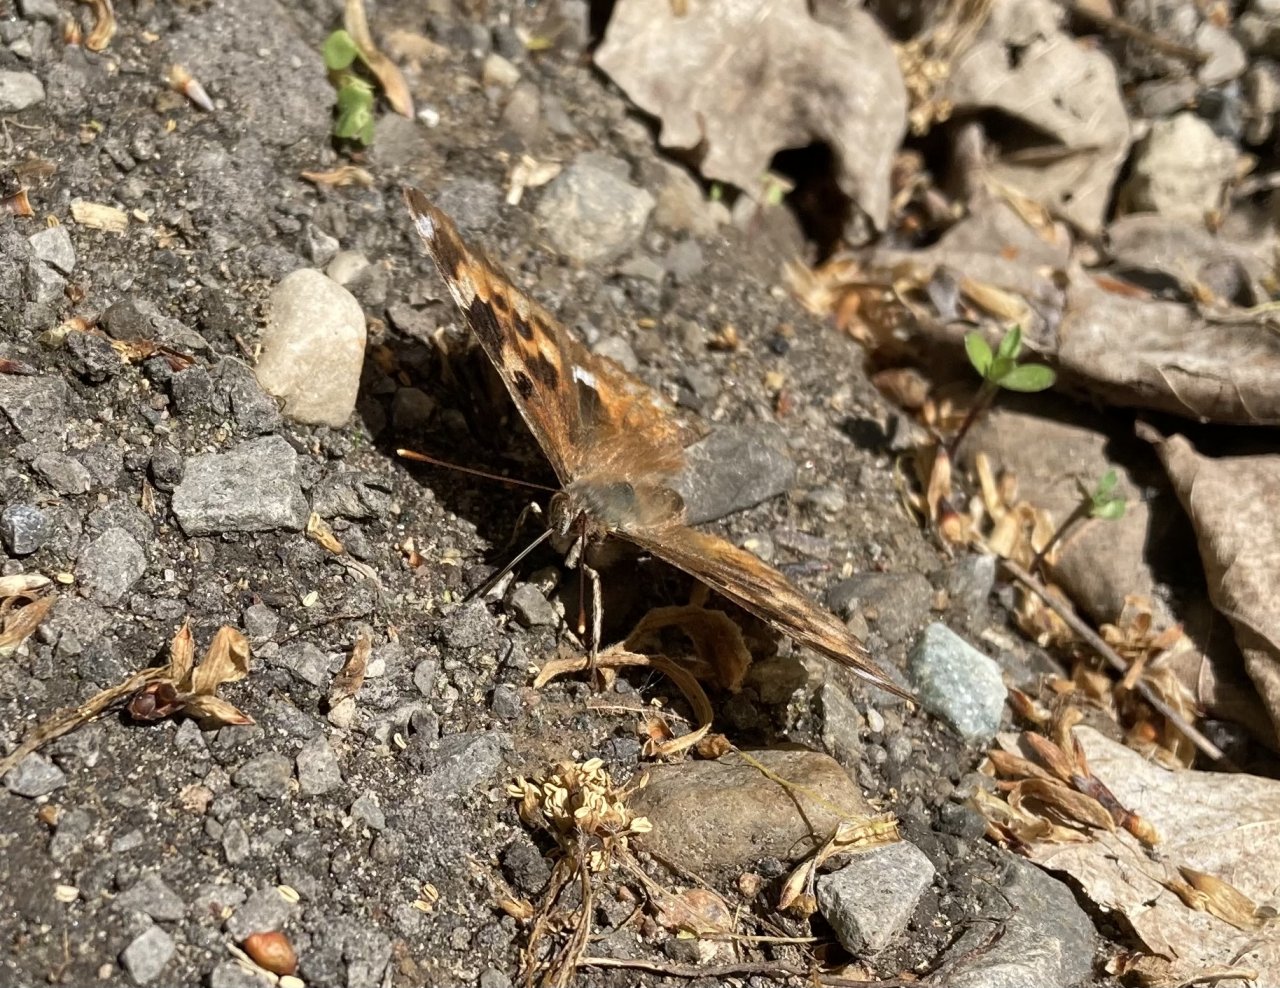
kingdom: Animalia
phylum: Arthropoda
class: Insecta
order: Lepidoptera
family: Nymphalidae
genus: Polygonia
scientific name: Polygonia vaualbum
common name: Compton Tortoiseshell
